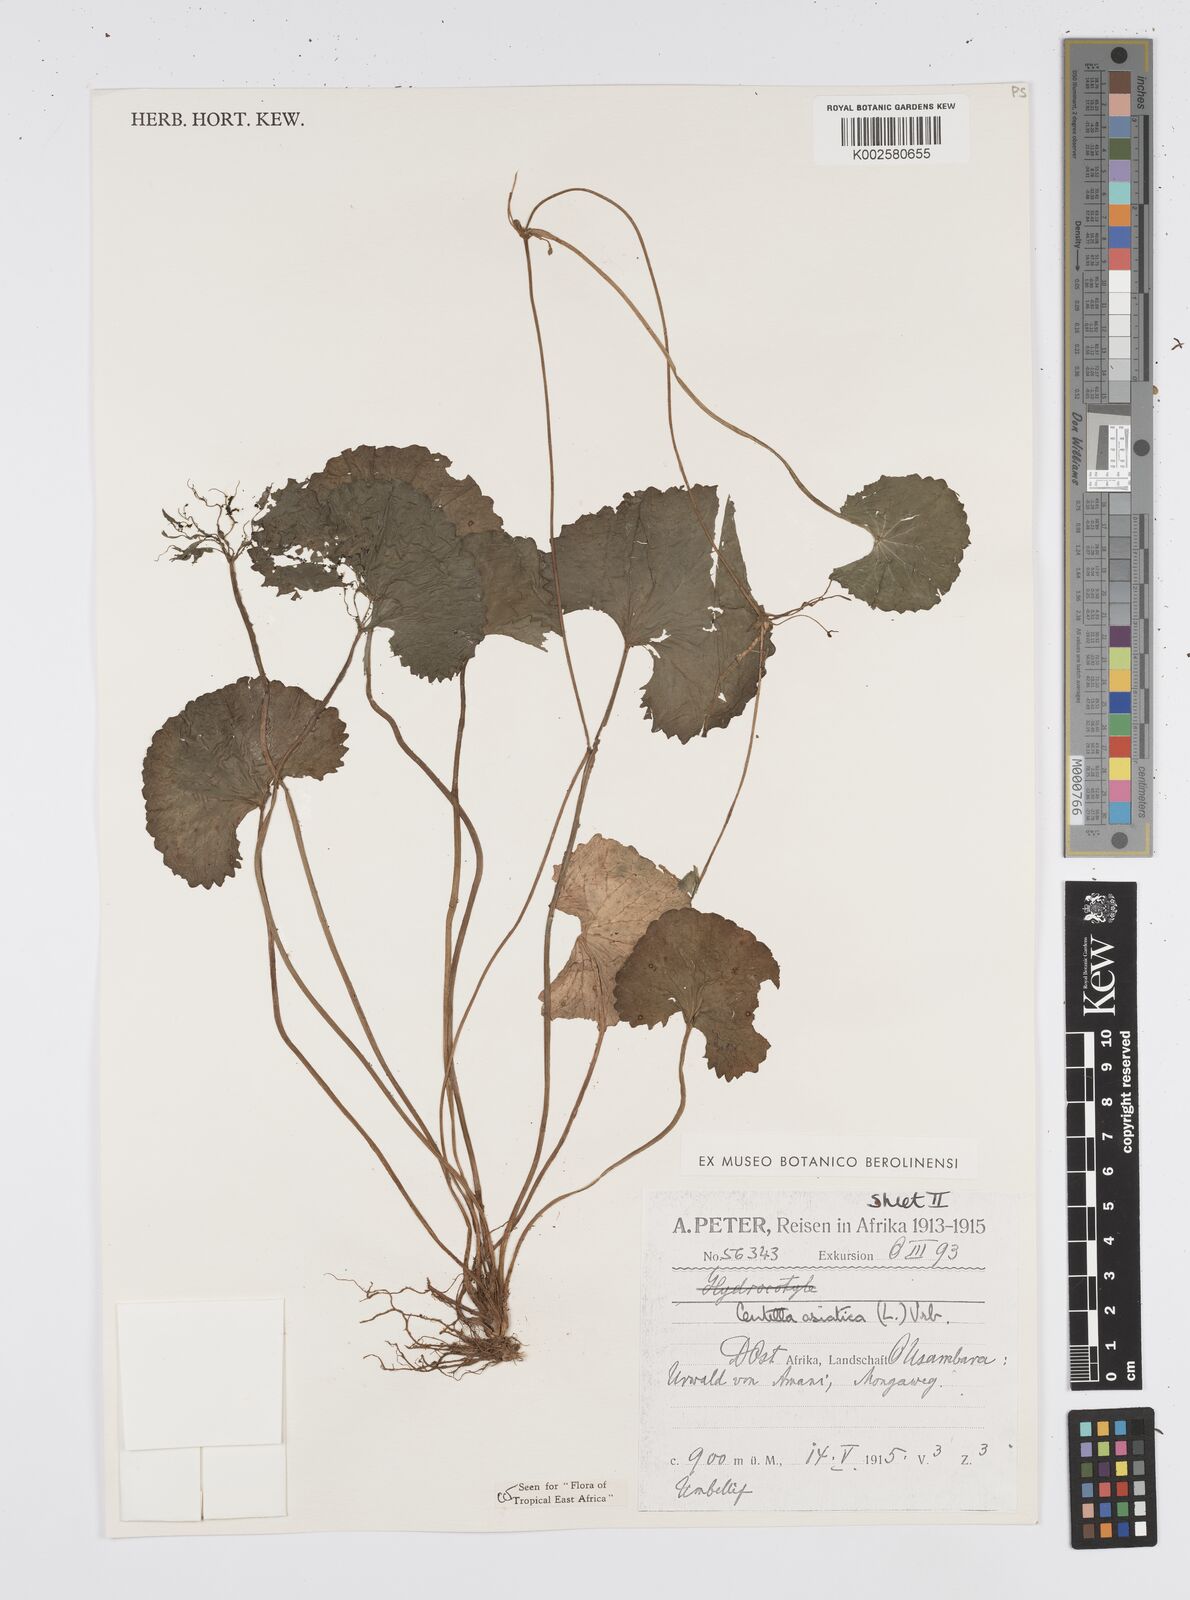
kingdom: Plantae
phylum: Tracheophyta
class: Magnoliopsida
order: Apiales
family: Apiaceae
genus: Centella
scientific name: Centella asiatica
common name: Spadeleaf
